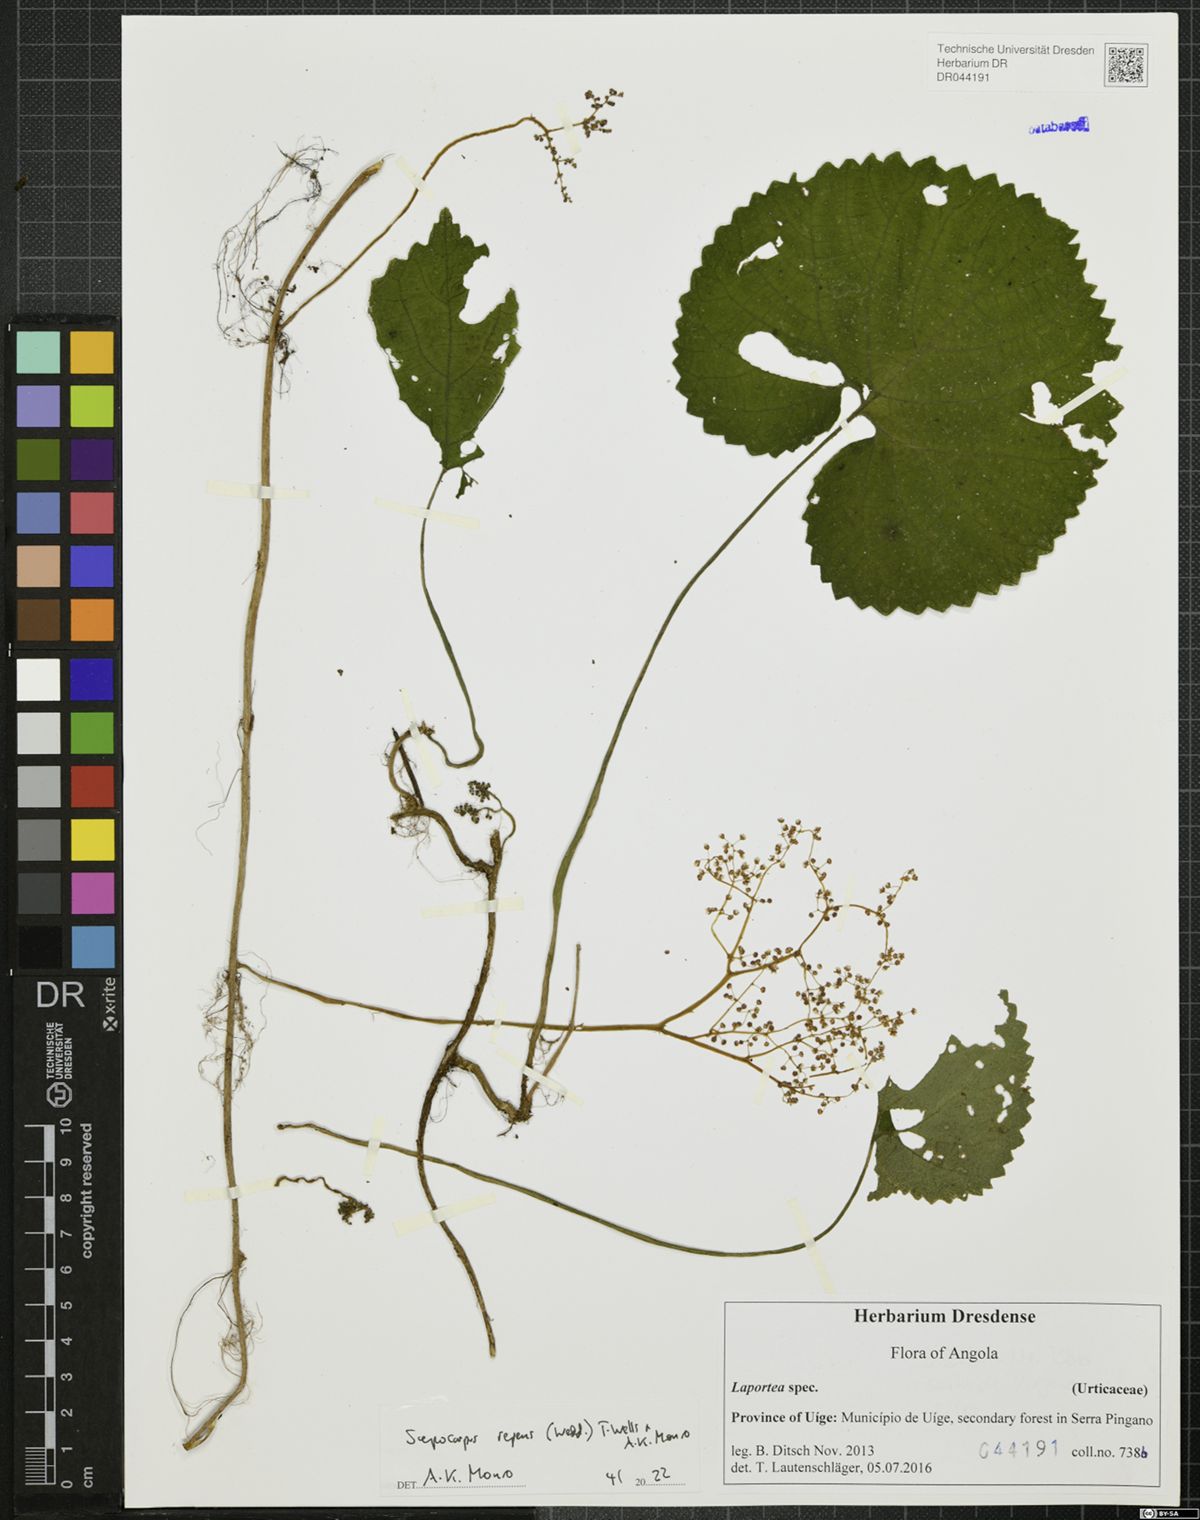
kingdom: Plantae
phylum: Tracheophyta
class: Magnoliopsida
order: Rosales
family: Urticaceae
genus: Scepocarpus
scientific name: Scepocarpus repens
